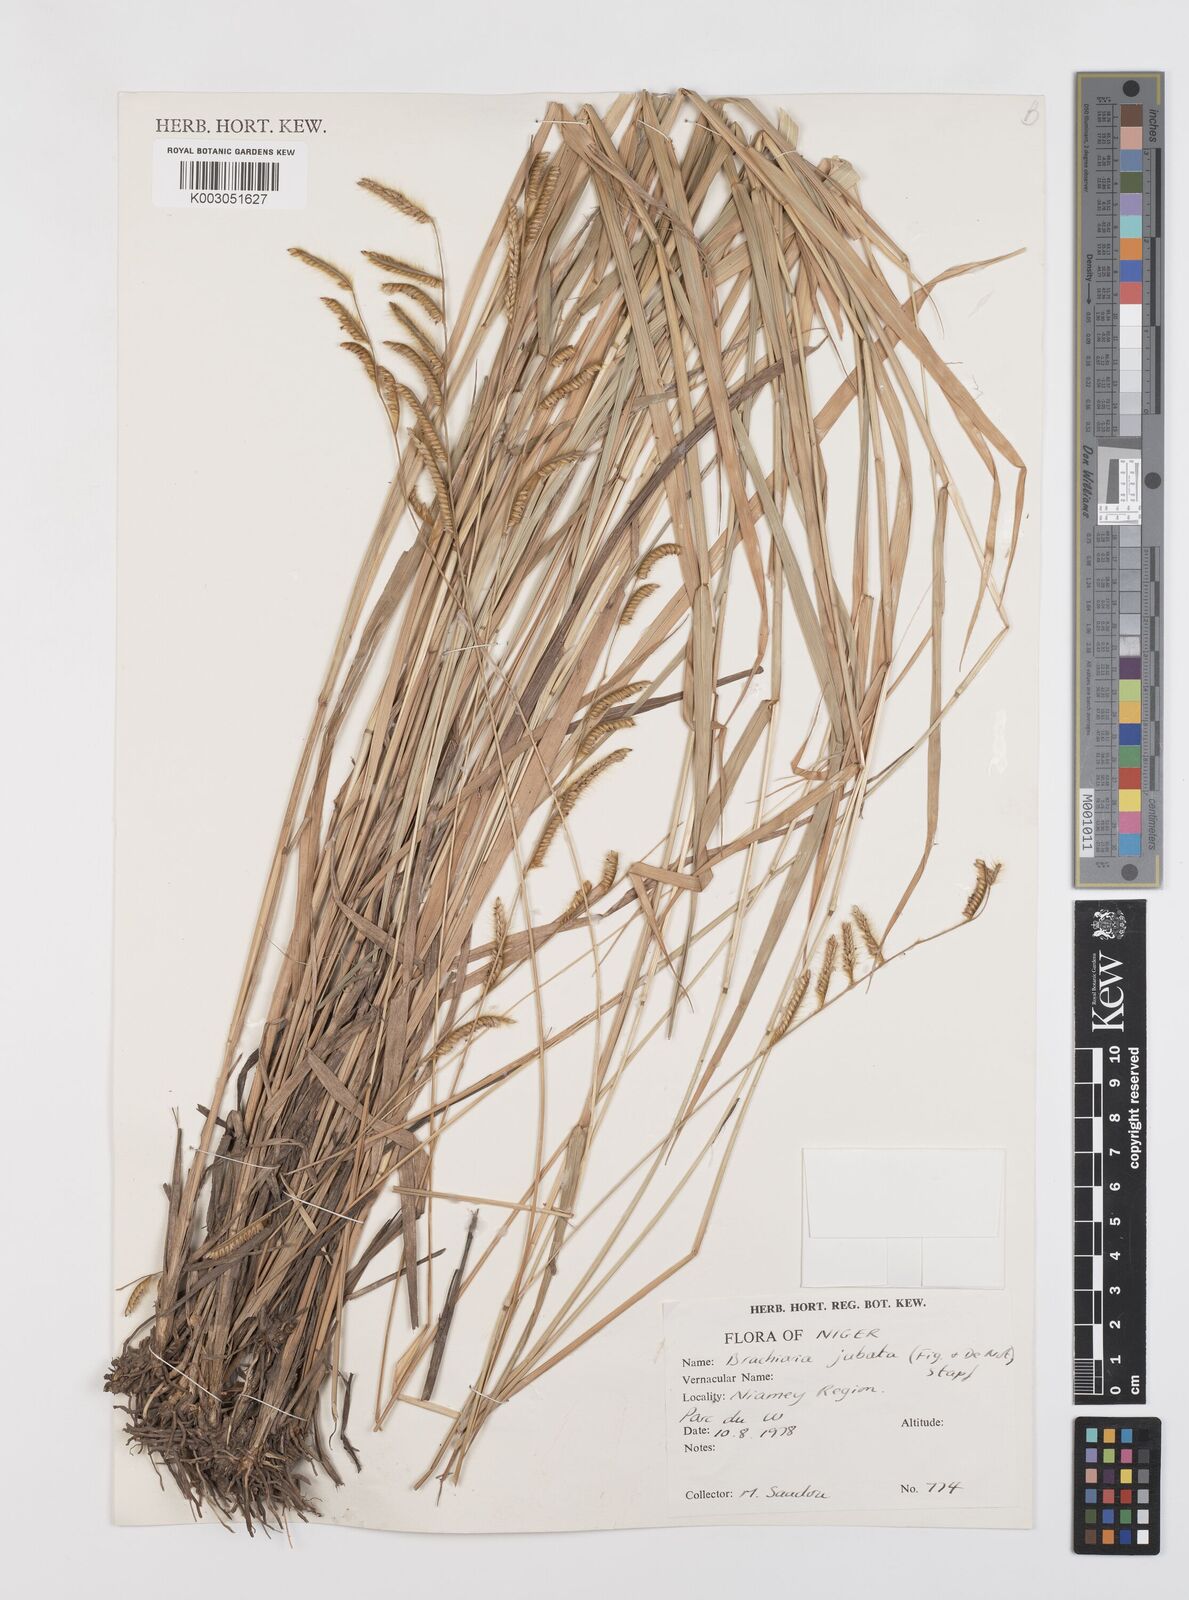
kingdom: Plantae
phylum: Tracheophyta
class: Liliopsida
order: Poales
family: Poaceae
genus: Urochloa
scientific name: Urochloa jubata
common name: Buffalograss
